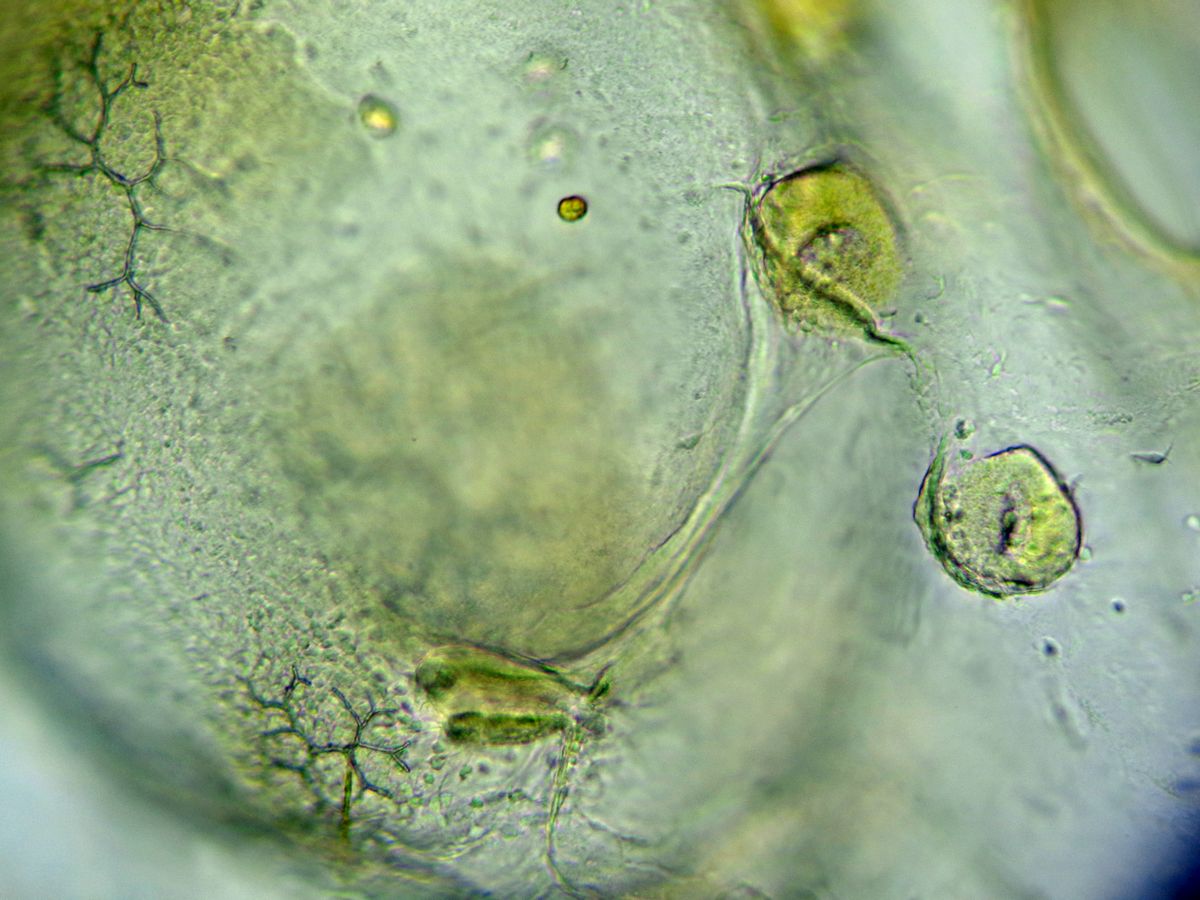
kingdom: Animalia
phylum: Echinodermata
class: Asteroidea
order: Forcipulatida
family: Asteriidae
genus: Asterias
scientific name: Asterias rubens
